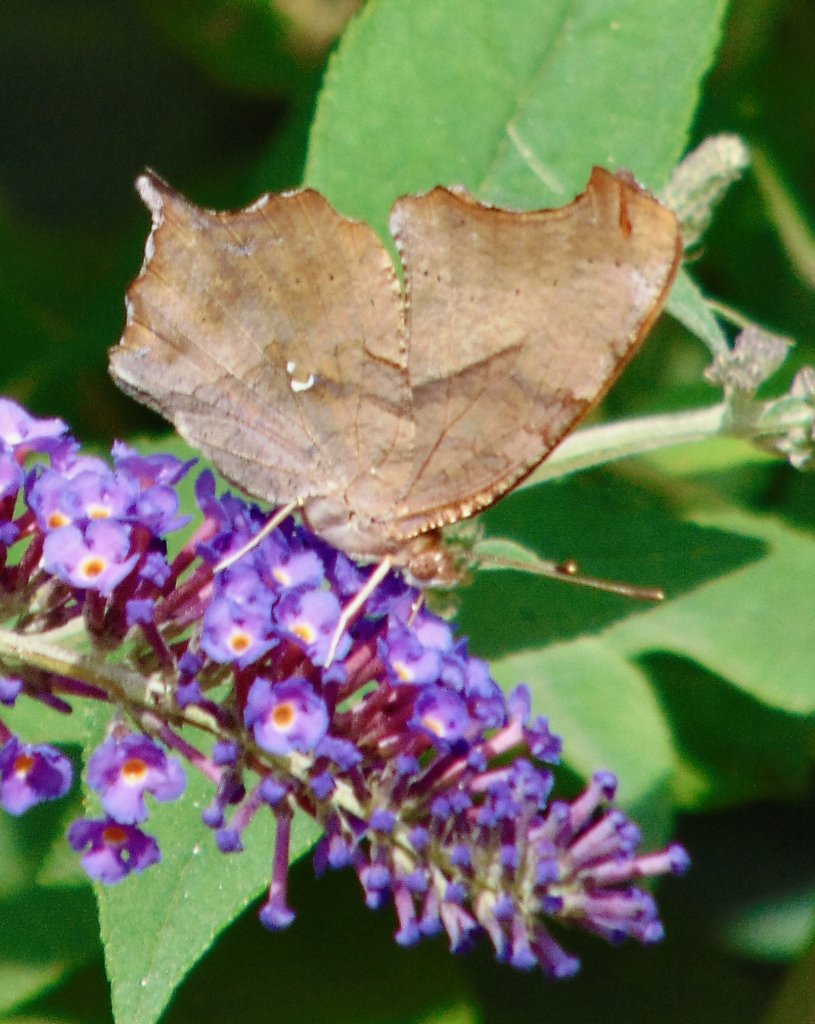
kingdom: Animalia
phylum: Arthropoda
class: Insecta
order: Lepidoptera
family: Nymphalidae
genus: Polygonia
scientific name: Polygonia interrogationis
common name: Question Mark
